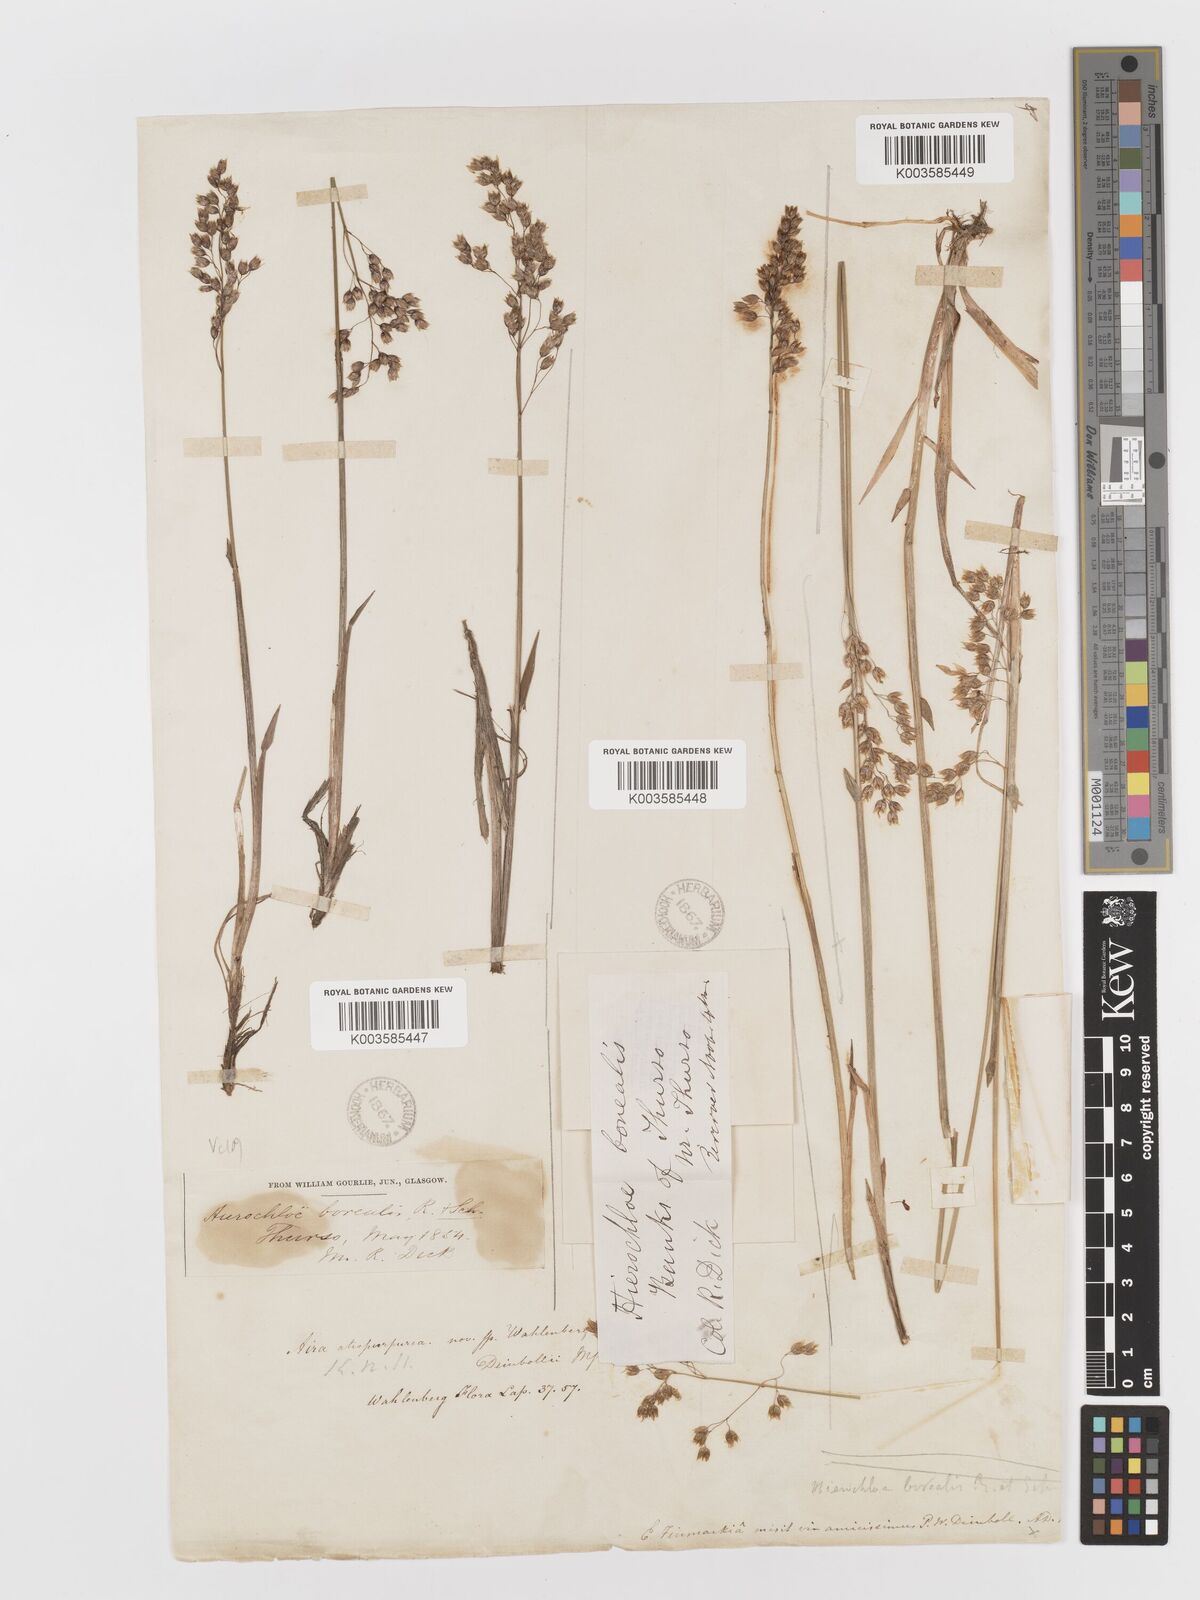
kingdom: Plantae
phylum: Tracheophyta
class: Liliopsida
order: Poales
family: Poaceae
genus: Anthoxanthum
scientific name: Anthoxanthum nitens
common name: Holy grass
